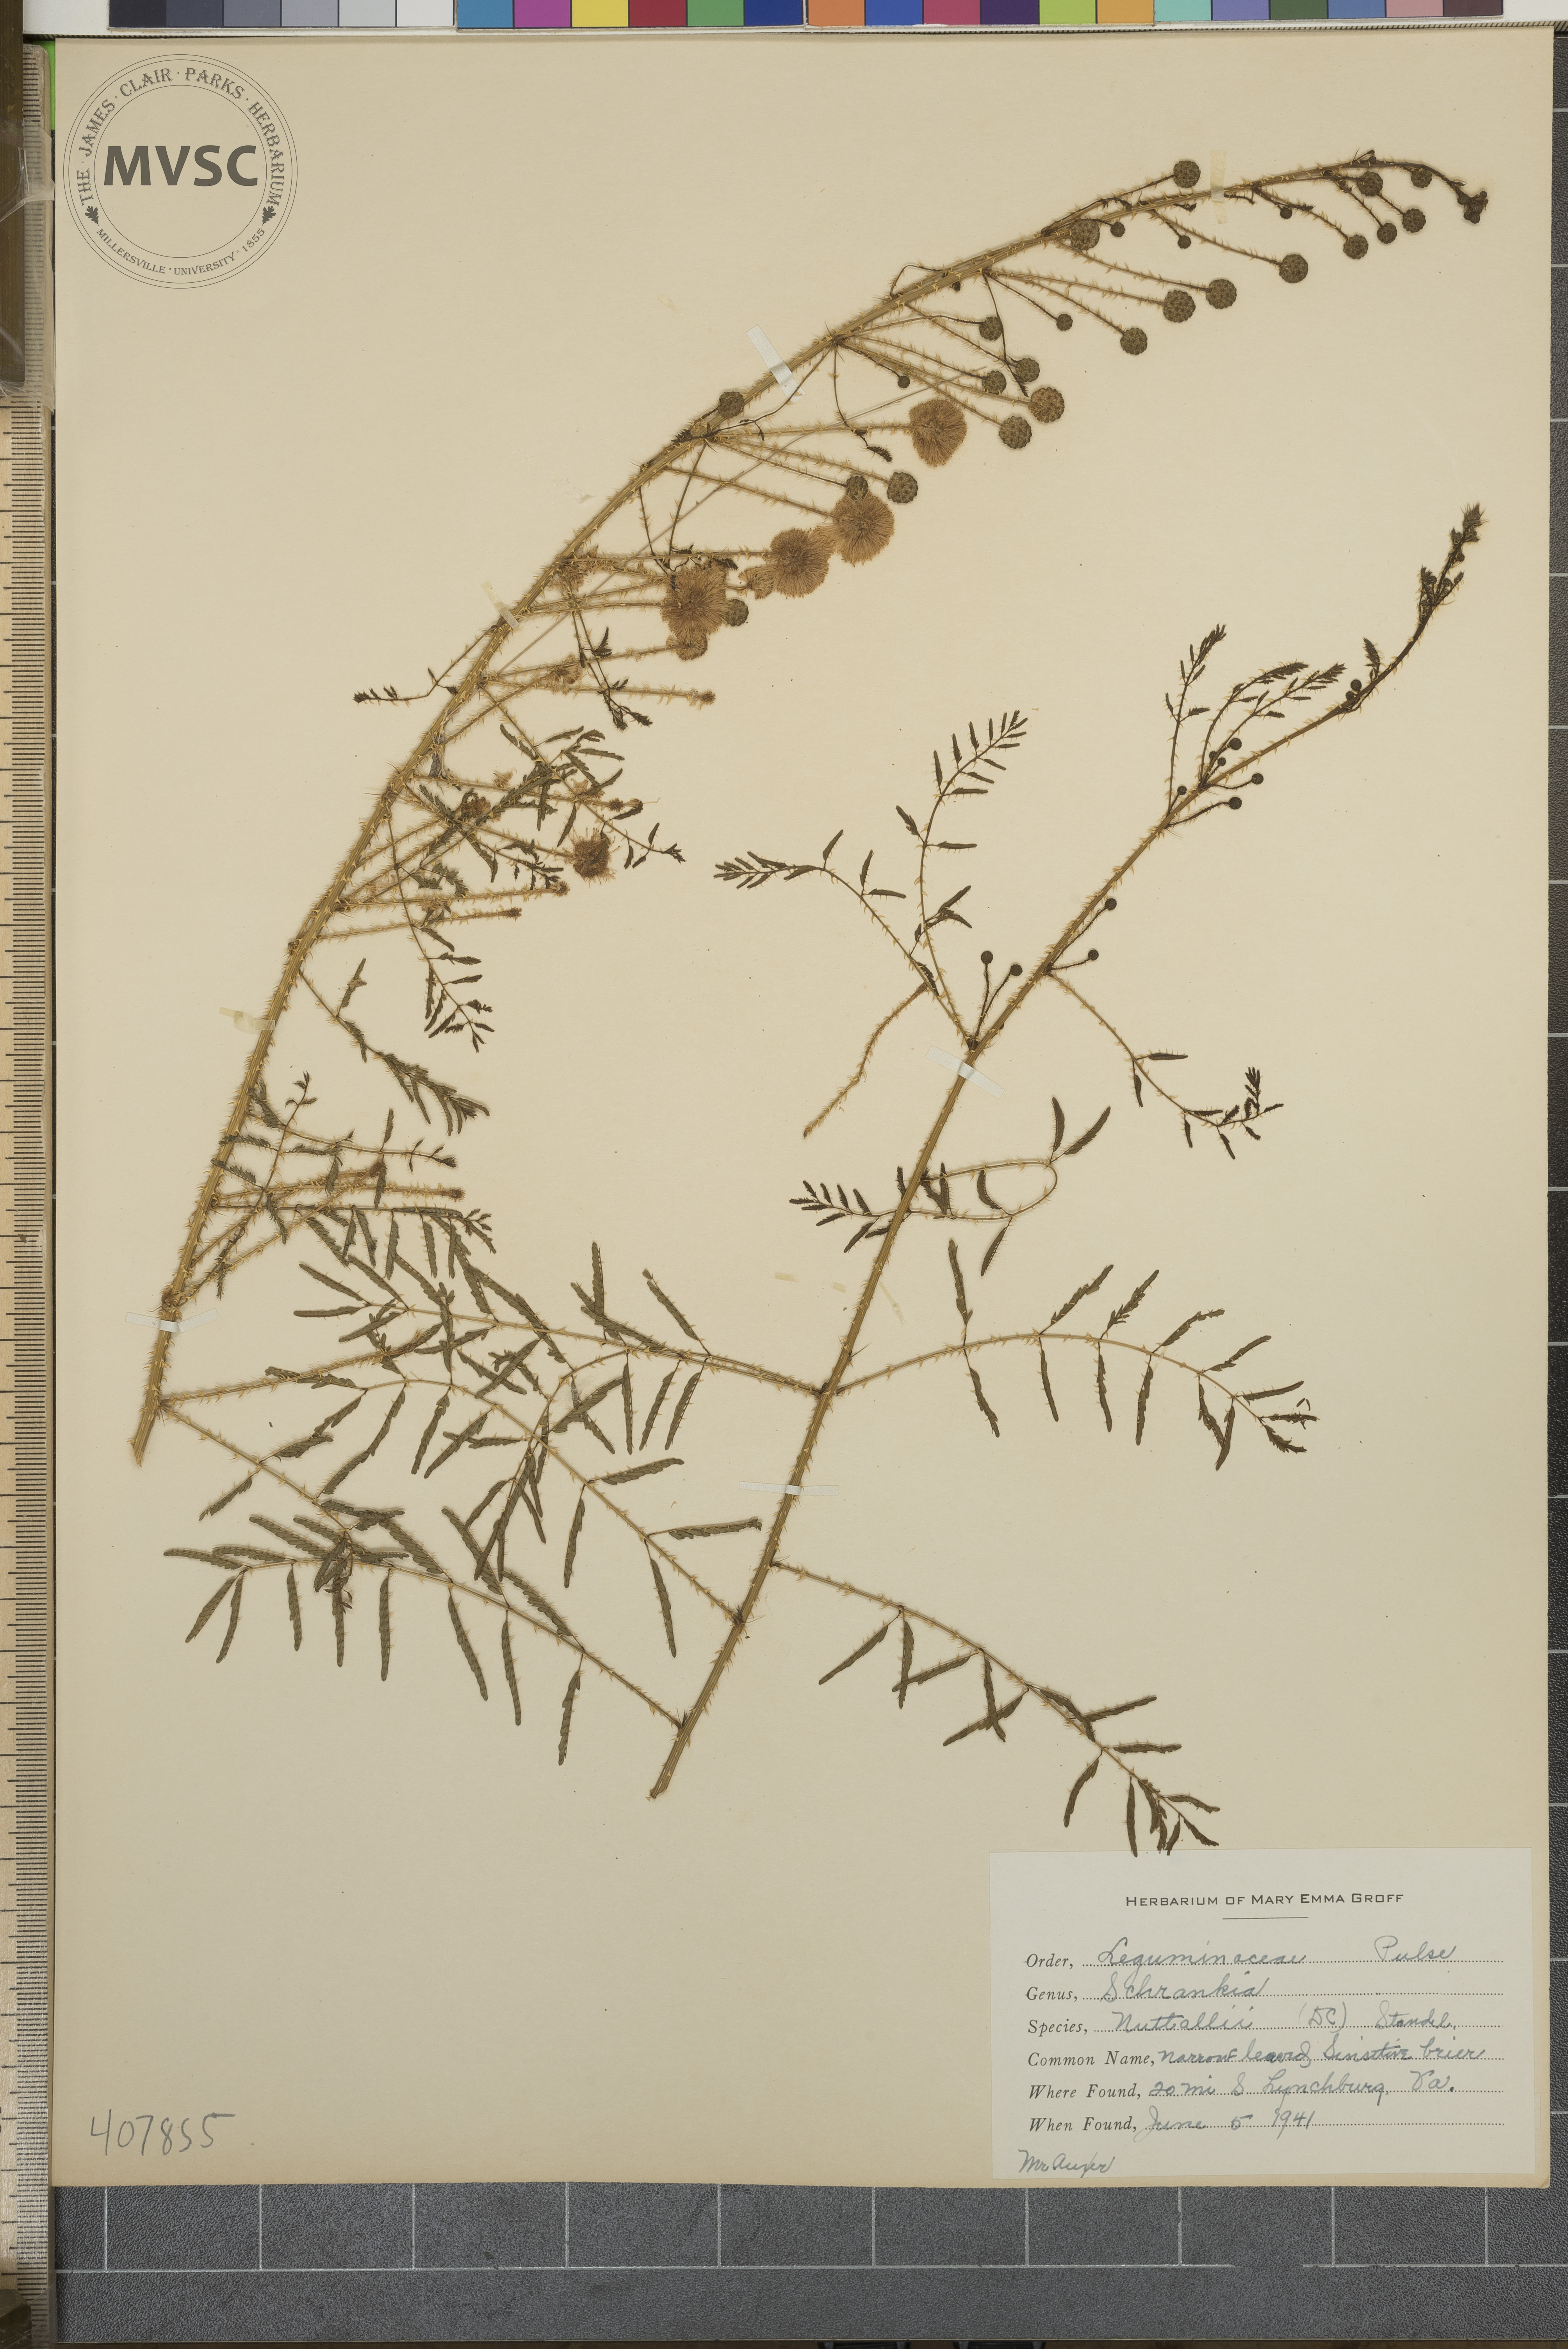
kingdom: Plantae
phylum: Tracheophyta
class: Magnoliopsida
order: Fabales
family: Fabaceae
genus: Mimosa
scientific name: Mimosa quadrivalvis
